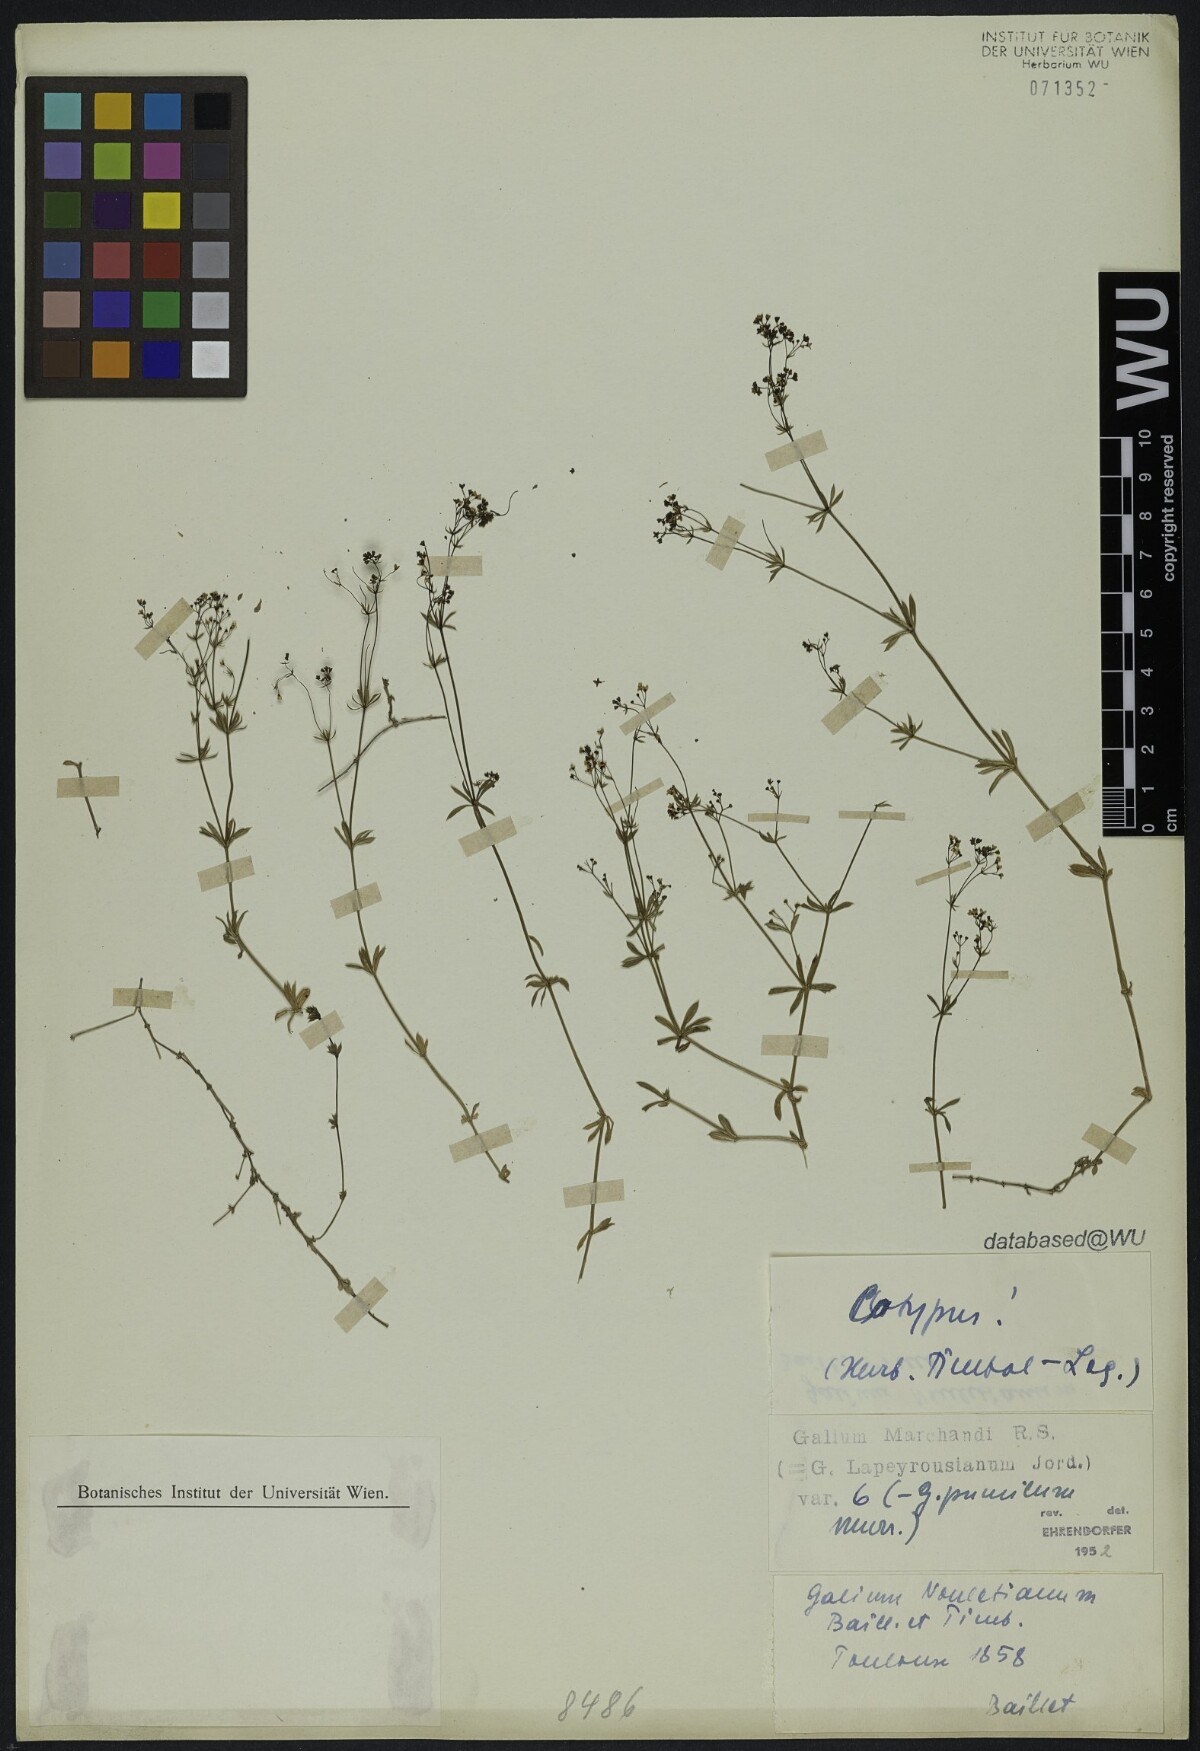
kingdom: Plantae
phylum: Tracheophyta
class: Magnoliopsida
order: Gentianales
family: Rubiaceae
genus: Galium
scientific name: Galium papillosum
